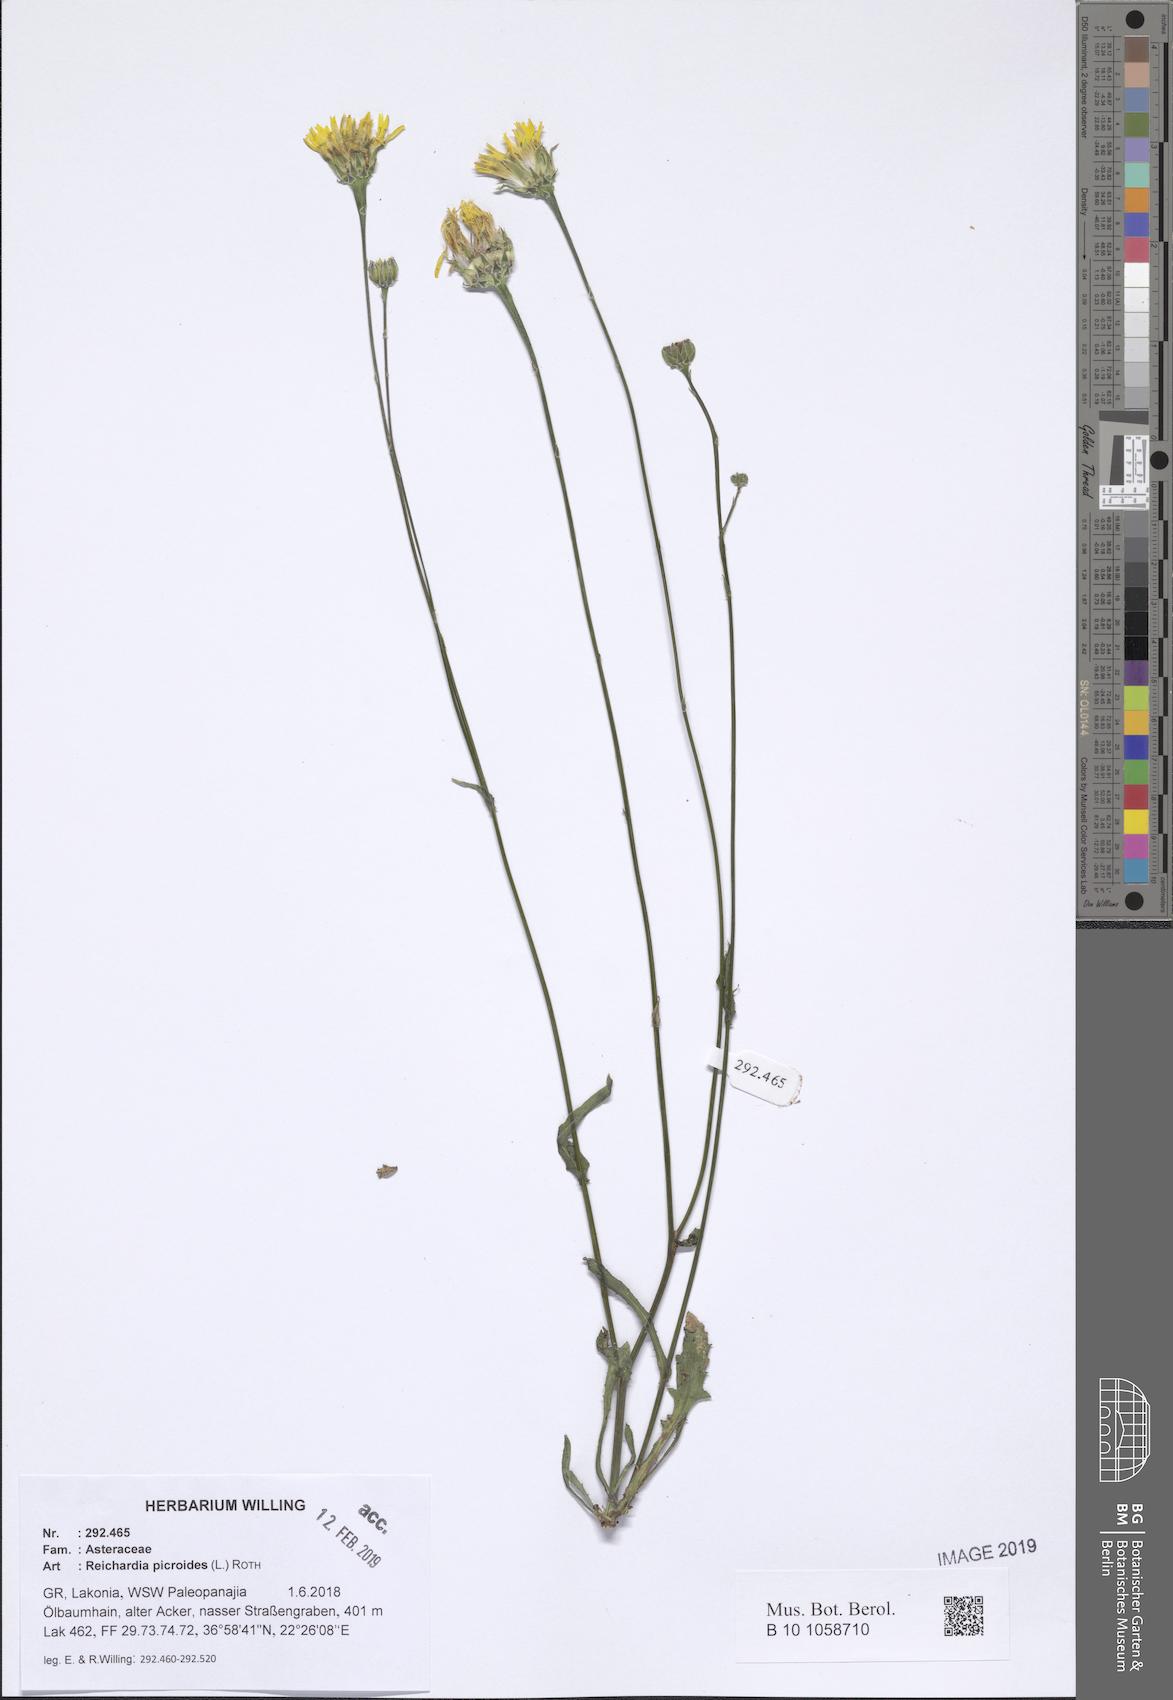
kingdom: Plantae
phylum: Tracheophyta
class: Magnoliopsida
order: Asterales
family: Asteraceae
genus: Reichardia
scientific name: Reichardia picroides
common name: Common brighteyes
